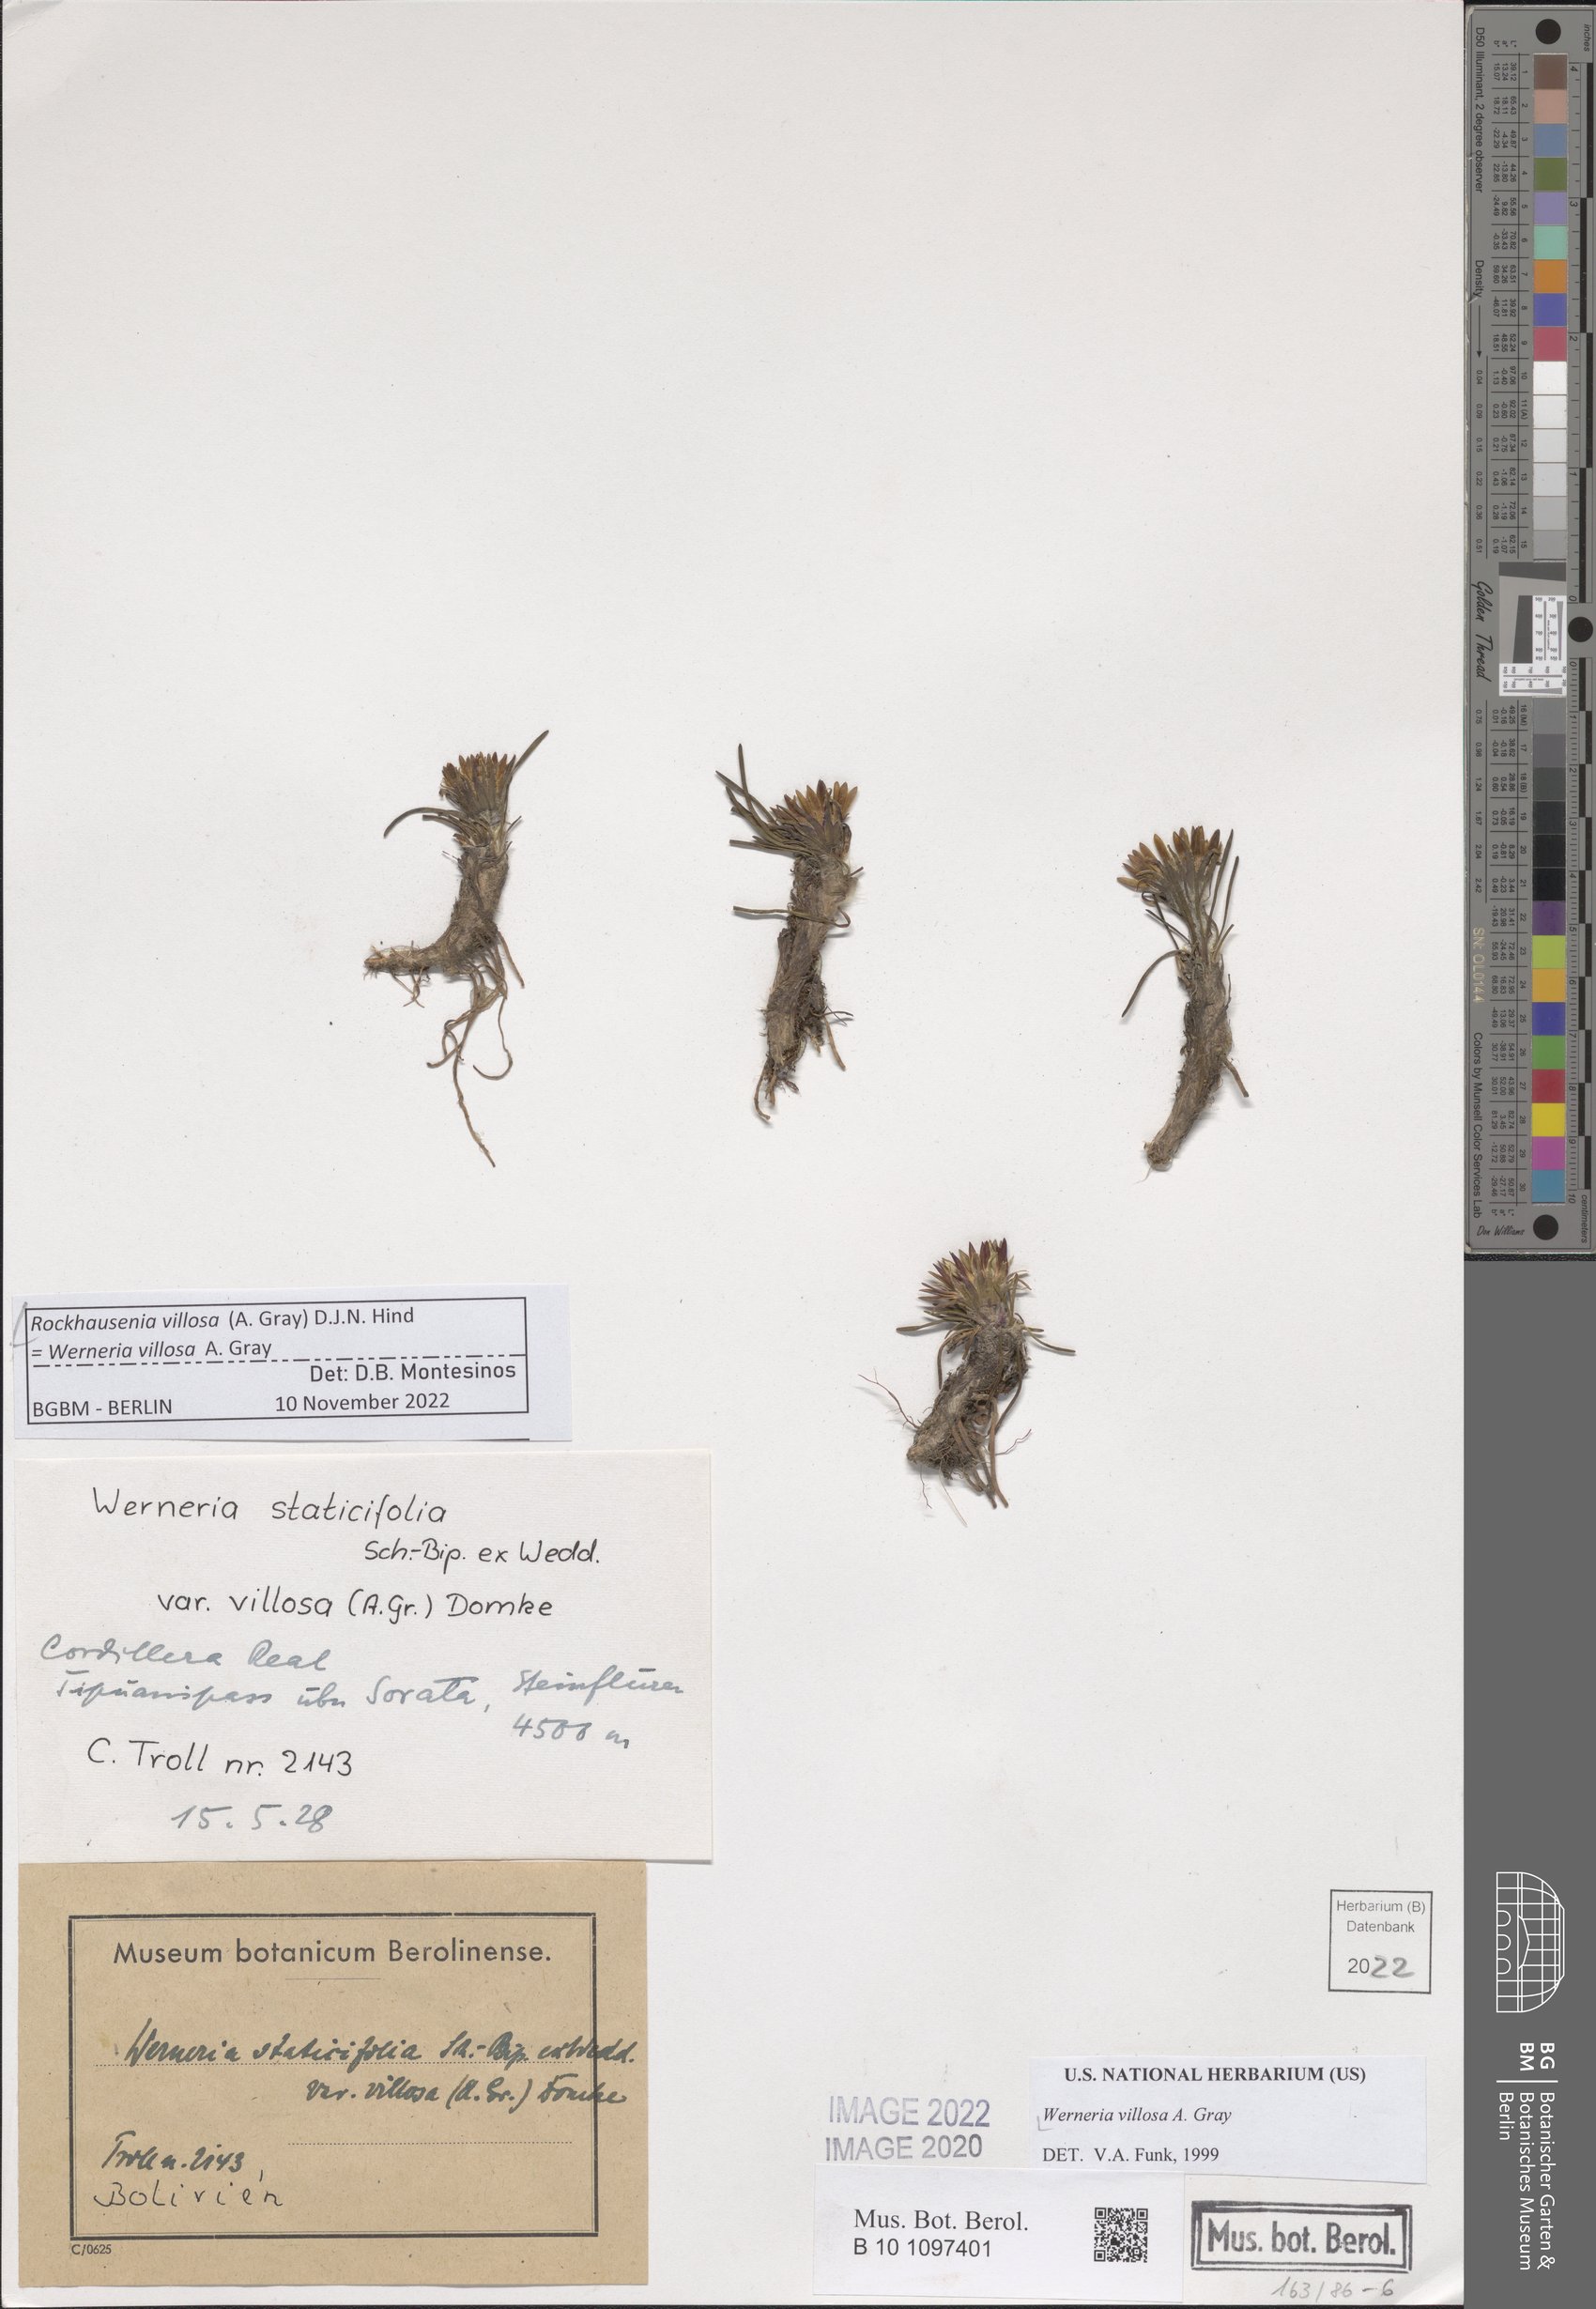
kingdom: Plantae
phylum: Tracheophyta
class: Magnoliopsida
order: Asterales
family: Asteraceae
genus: Rockhausenia
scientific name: Rockhausenia villosa
